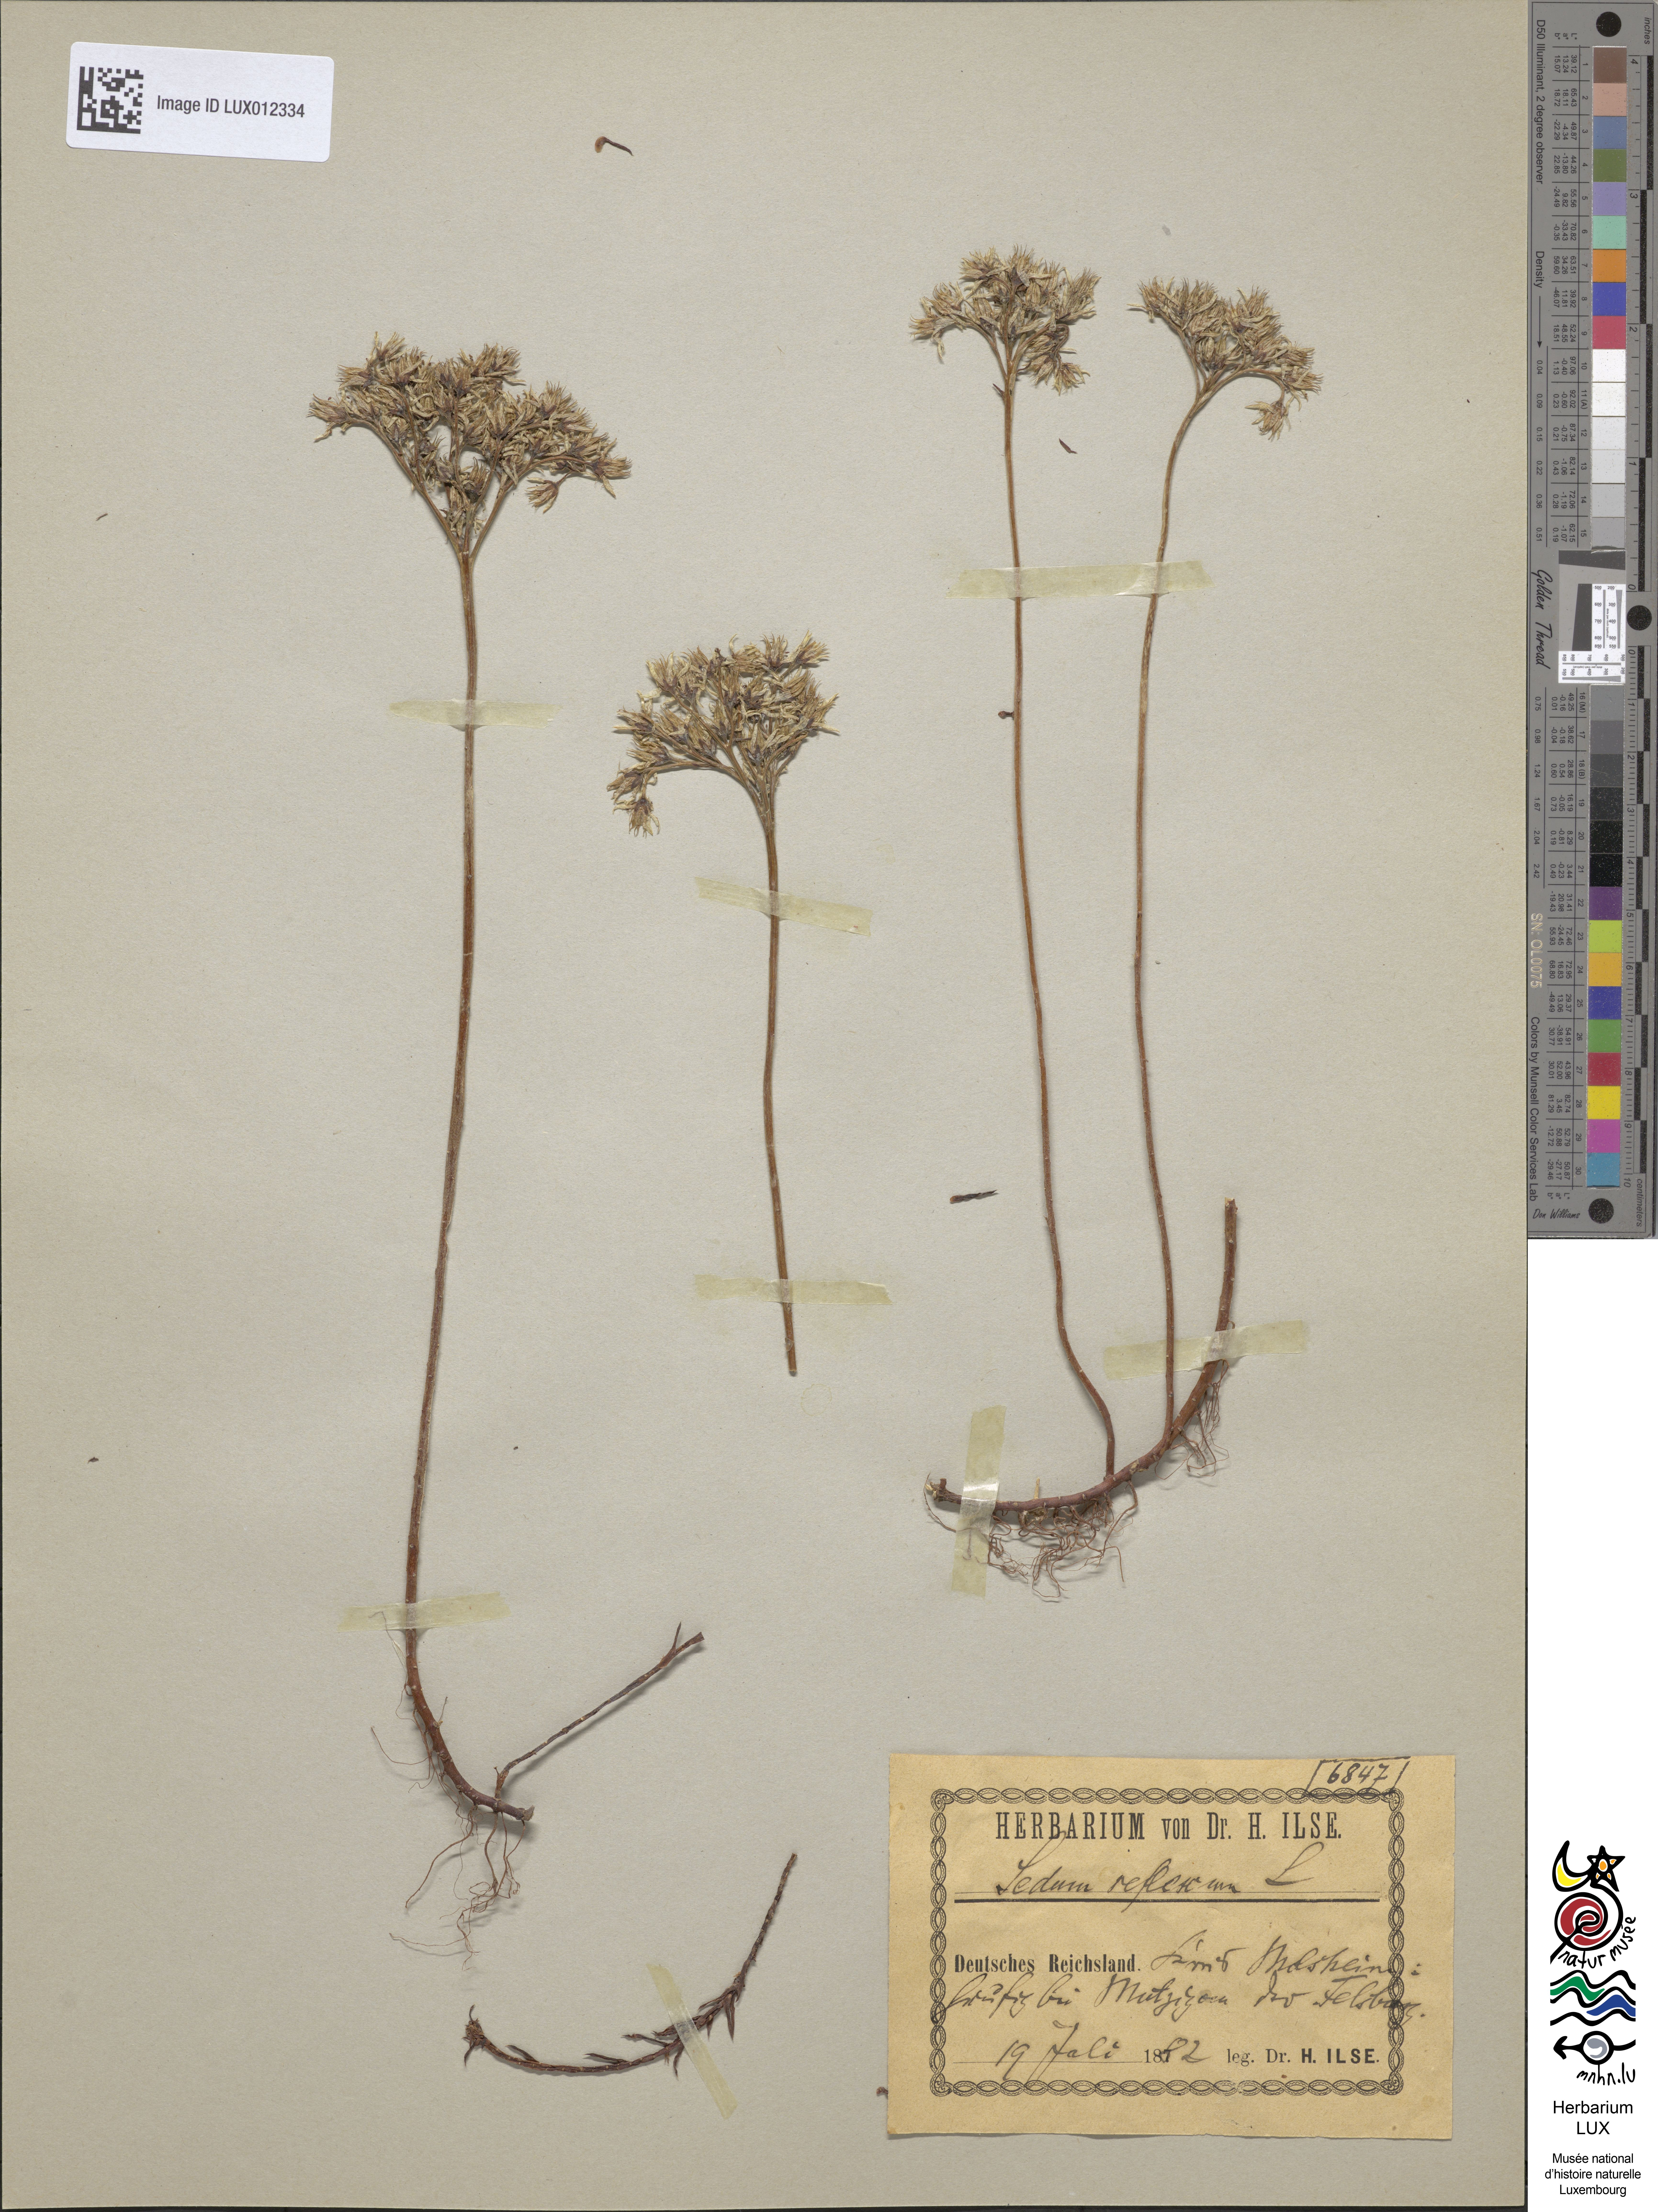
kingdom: Plantae
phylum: Tracheophyta
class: Magnoliopsida
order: Saxifragales
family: Crassulaceae
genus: Petrosedum
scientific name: Petrosedum rupestre
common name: Jenny's stonecrop
